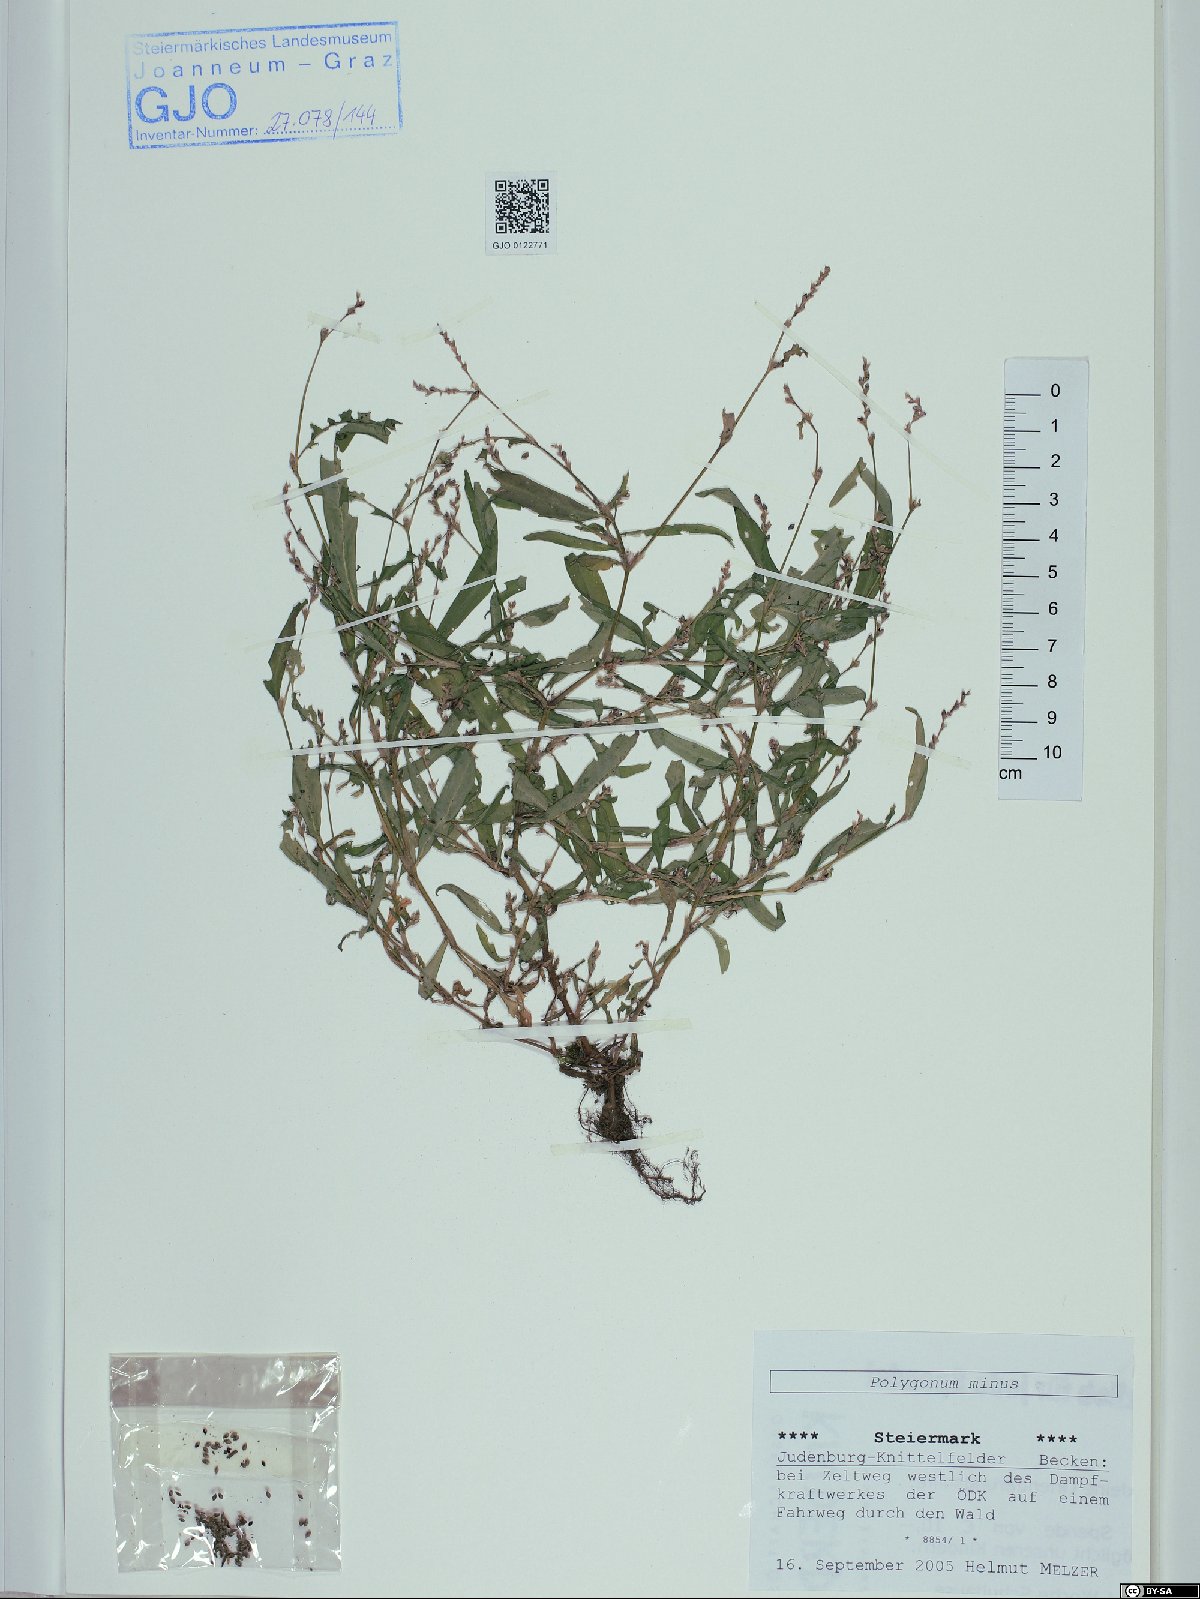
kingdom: Plantae
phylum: Tracheophyta
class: Magnoliopsida
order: Caryophyllales
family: Polygonaceae
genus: Persicaria
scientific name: Persicaria minor
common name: Small water-pepper
